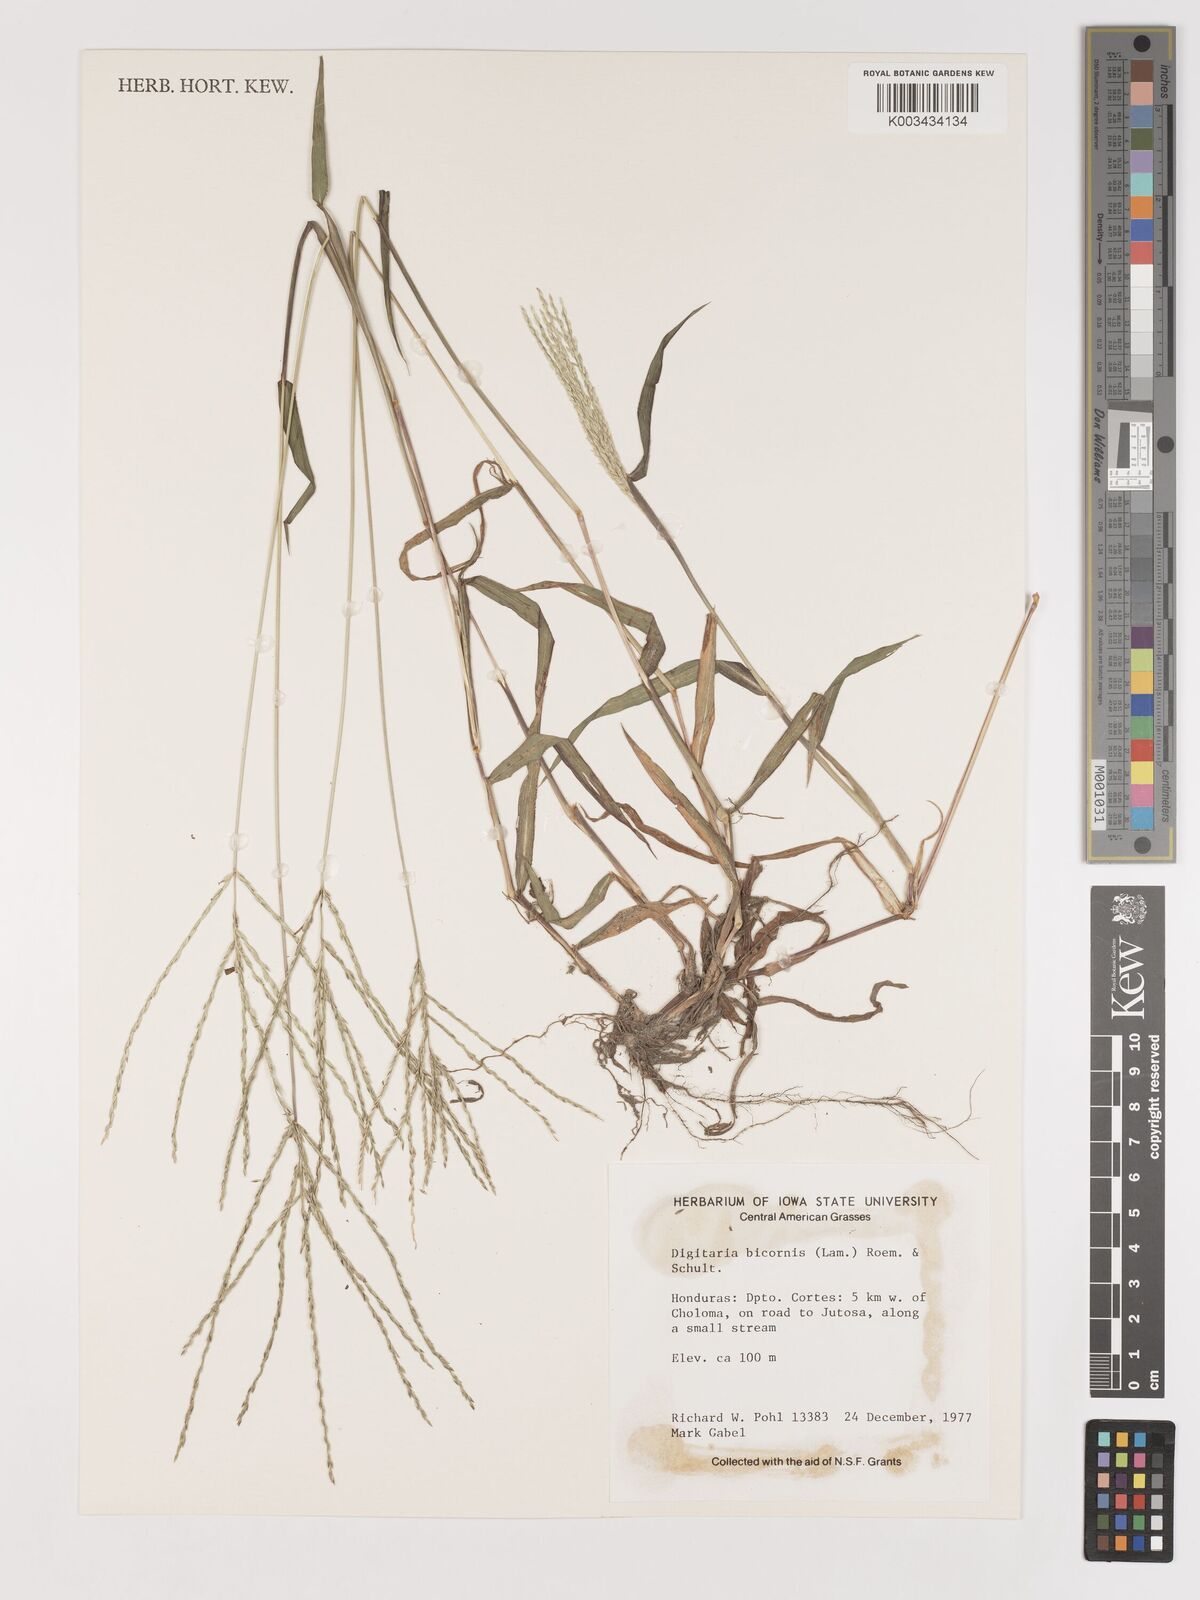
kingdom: Plantae
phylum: Tracheophyta
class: Liliopsida
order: Poales
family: Poaceae
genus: Digitaria
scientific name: Digitaria ciliaris
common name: Tropical finger-grass
